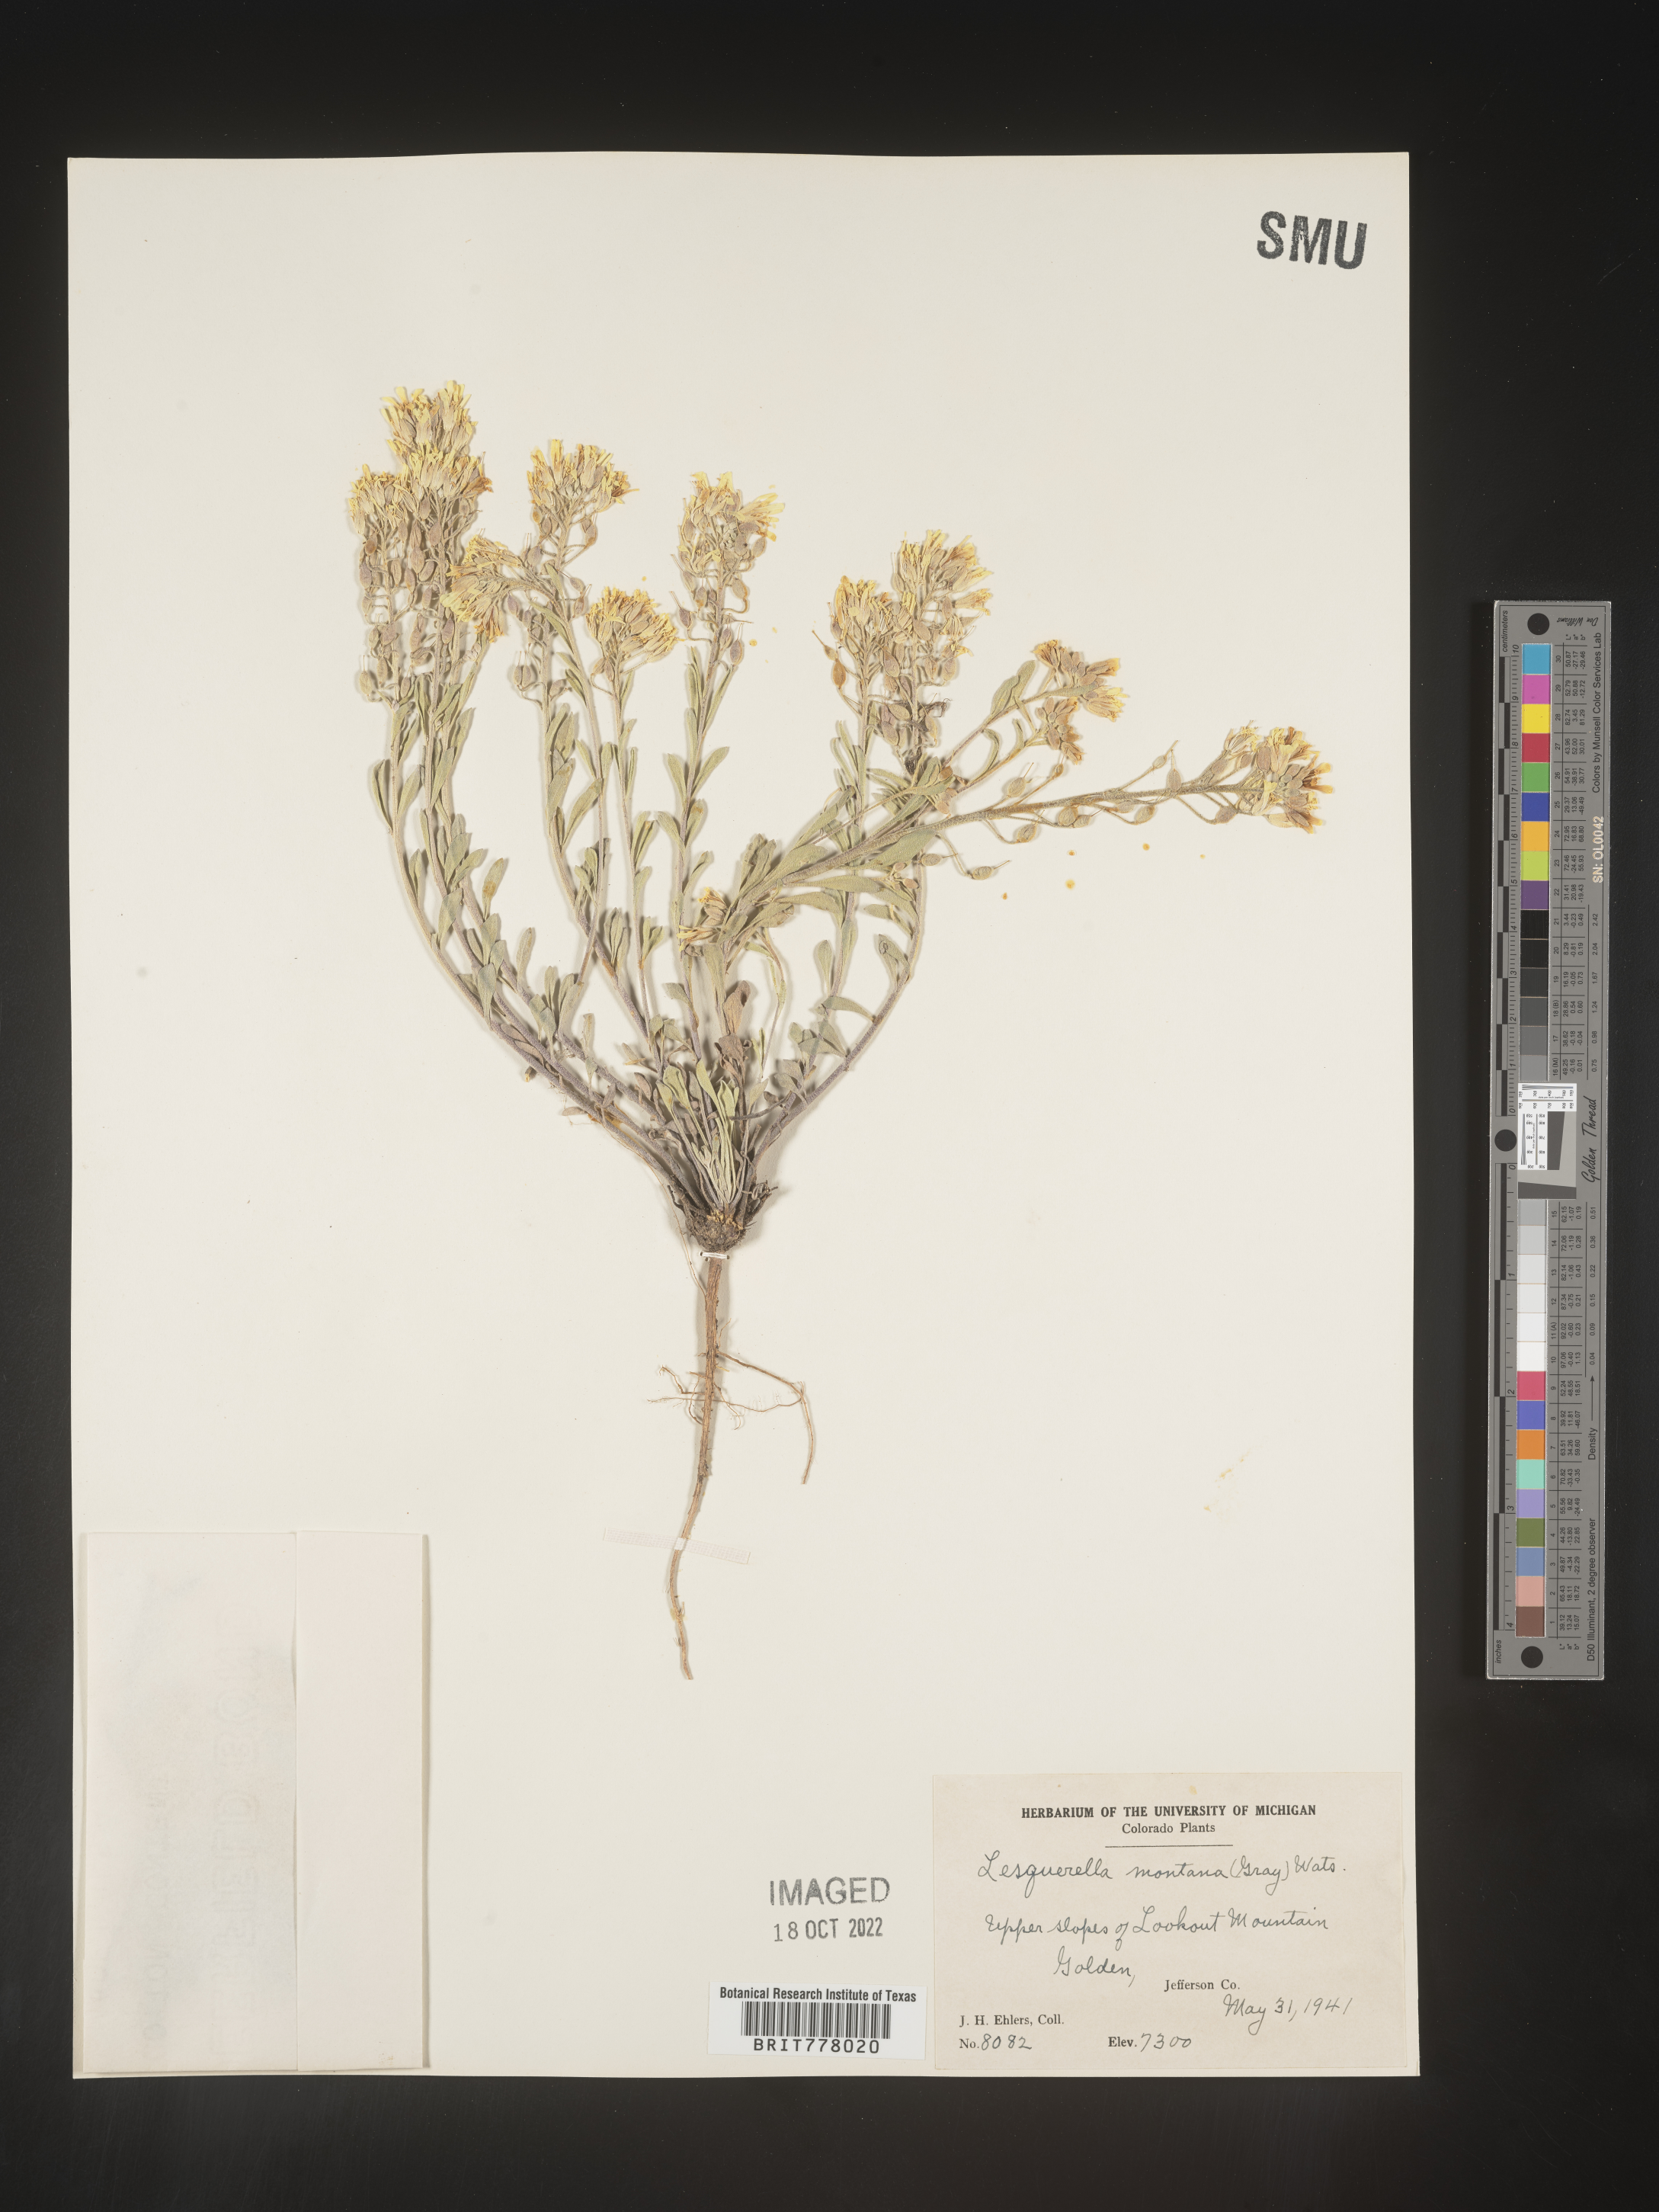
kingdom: Chromista
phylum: Cercozoa
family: Psammonobiotidae
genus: Lesquerella
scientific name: Lesquerella
